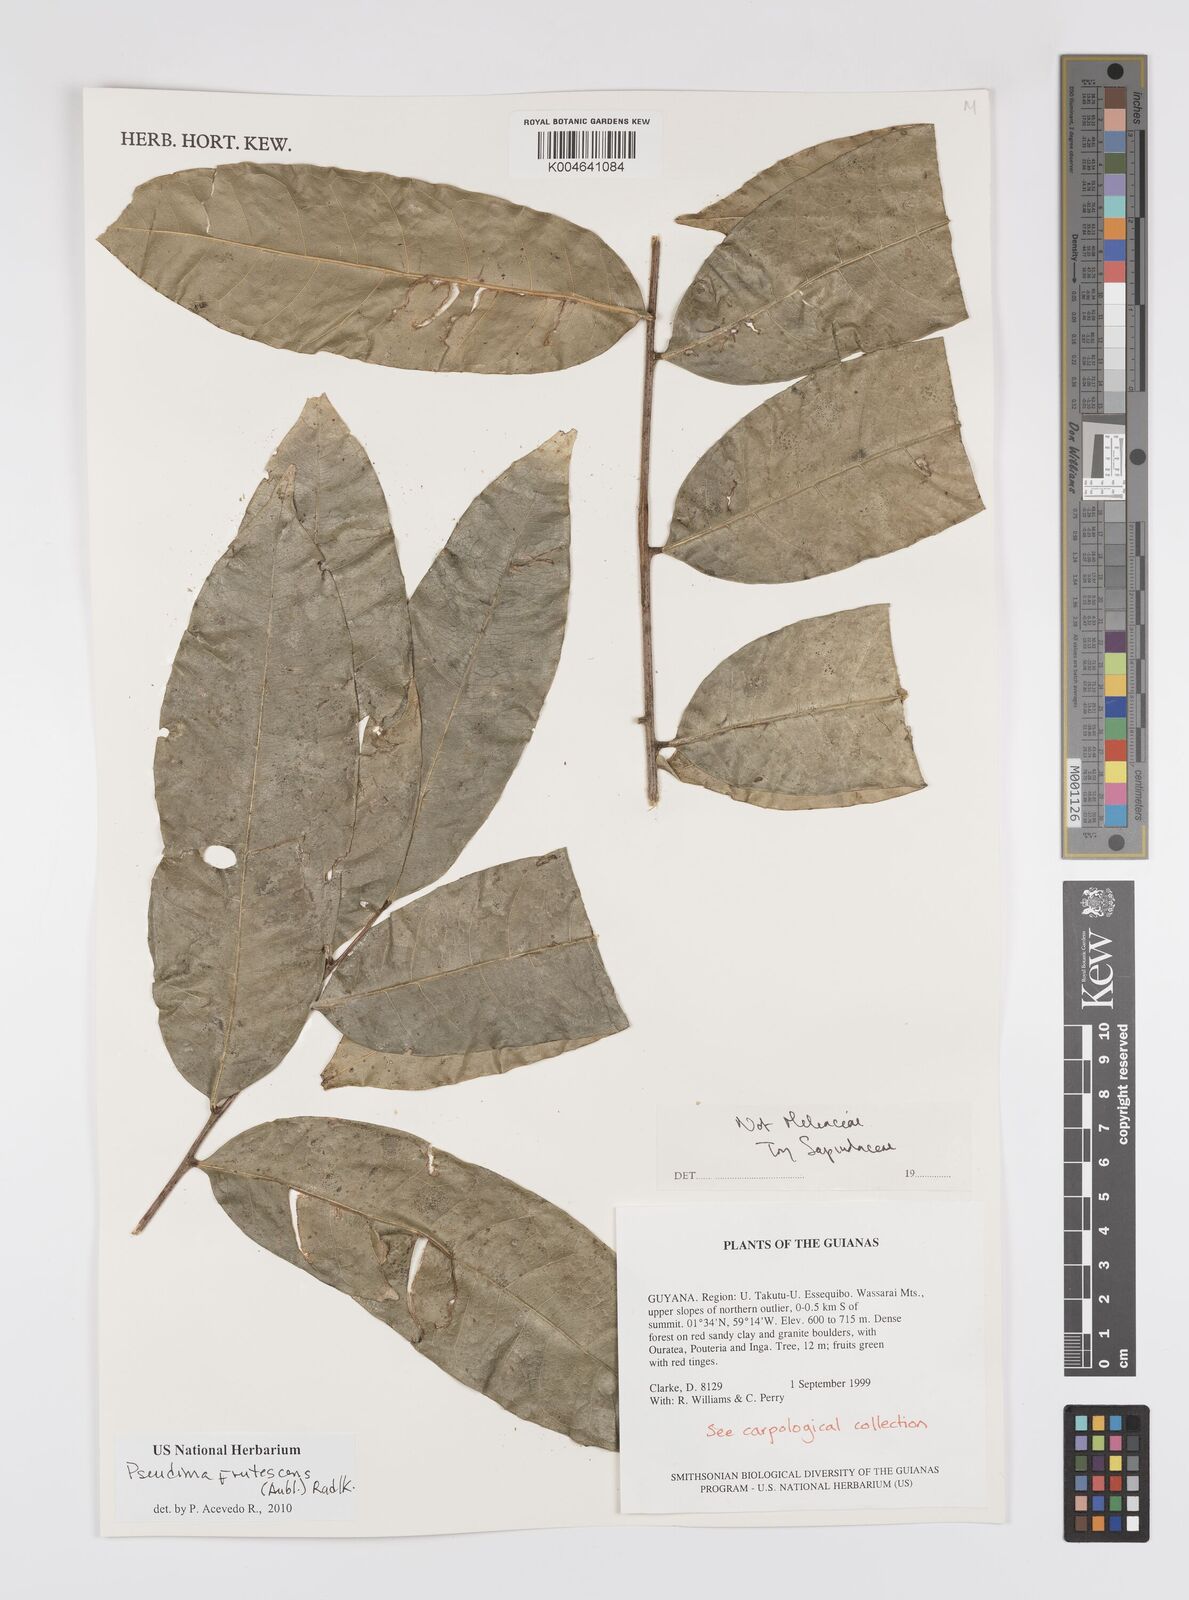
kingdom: Plantae
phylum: Tracheophyta
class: Magnoliopsida
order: Sapindales
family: Sapindaceae
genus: Pseudima
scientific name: Pseudima frutescens
